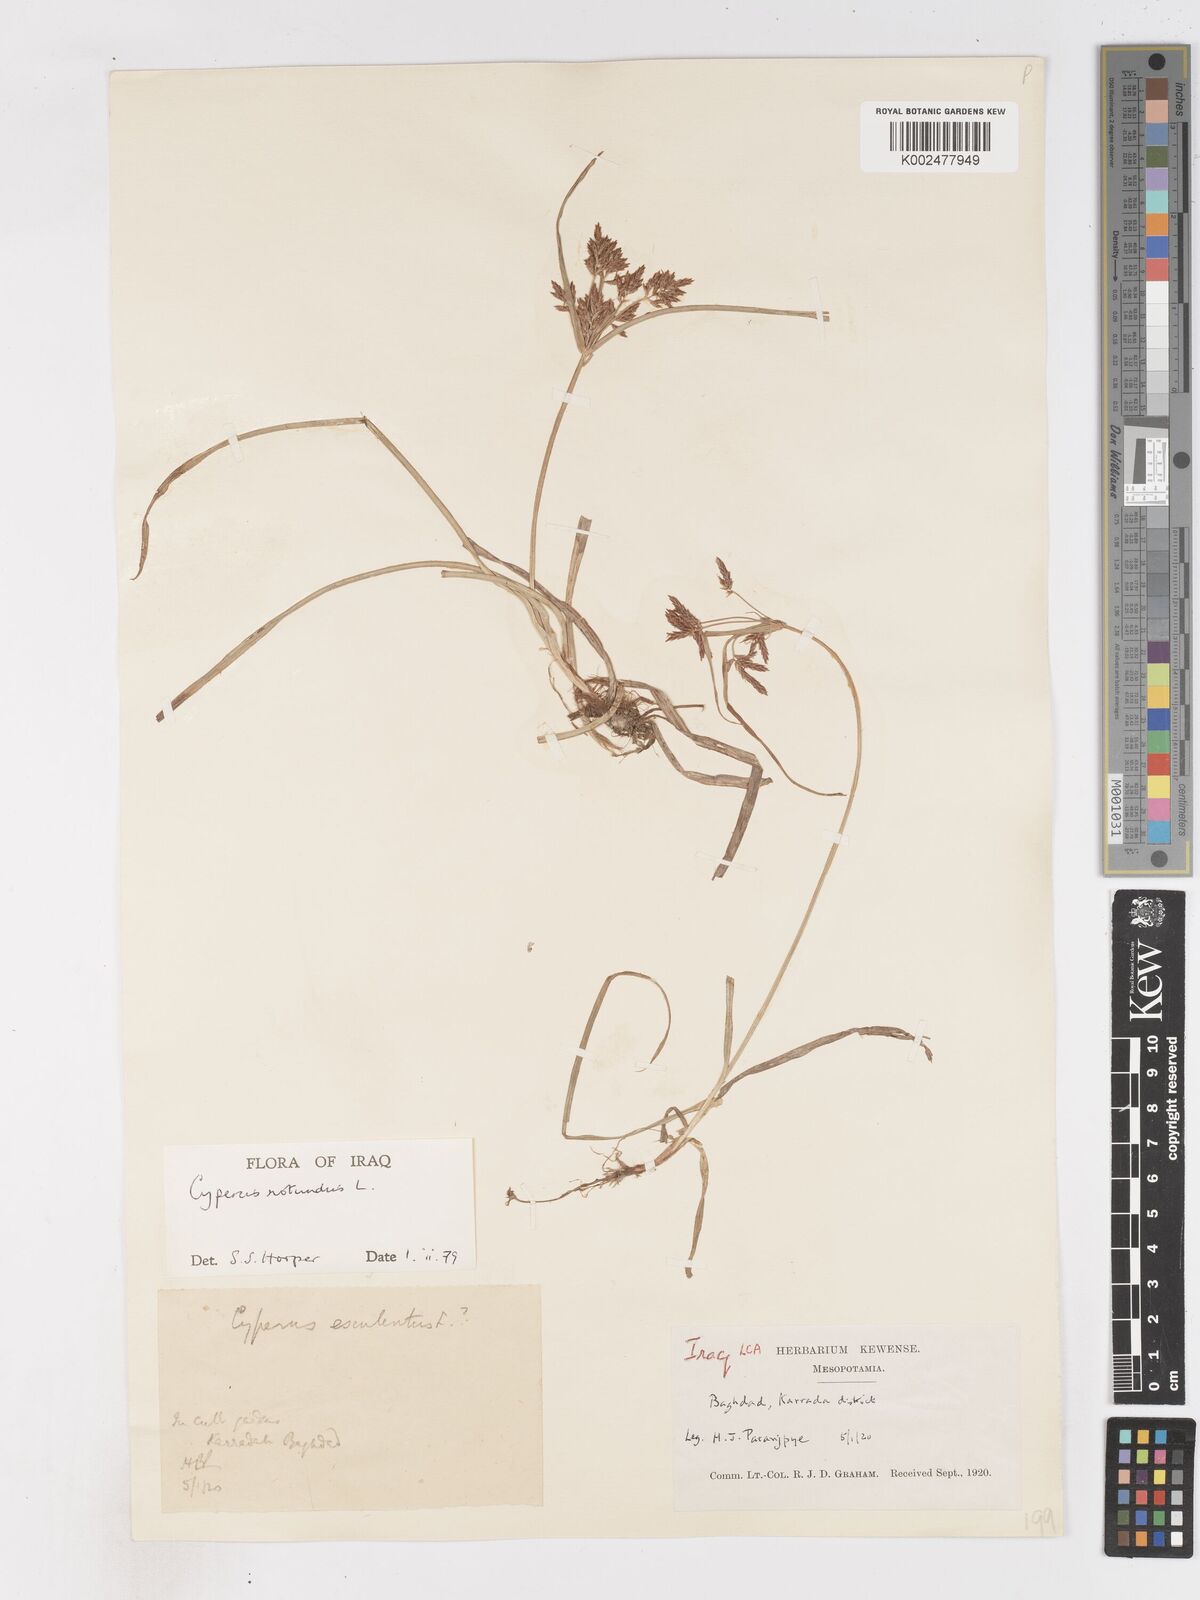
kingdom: Plantae
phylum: Tracheophyta
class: Liliopsida
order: Poales
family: Cyperaceae
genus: Cyperus
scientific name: Cyperus rotundus
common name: Nutgrass
